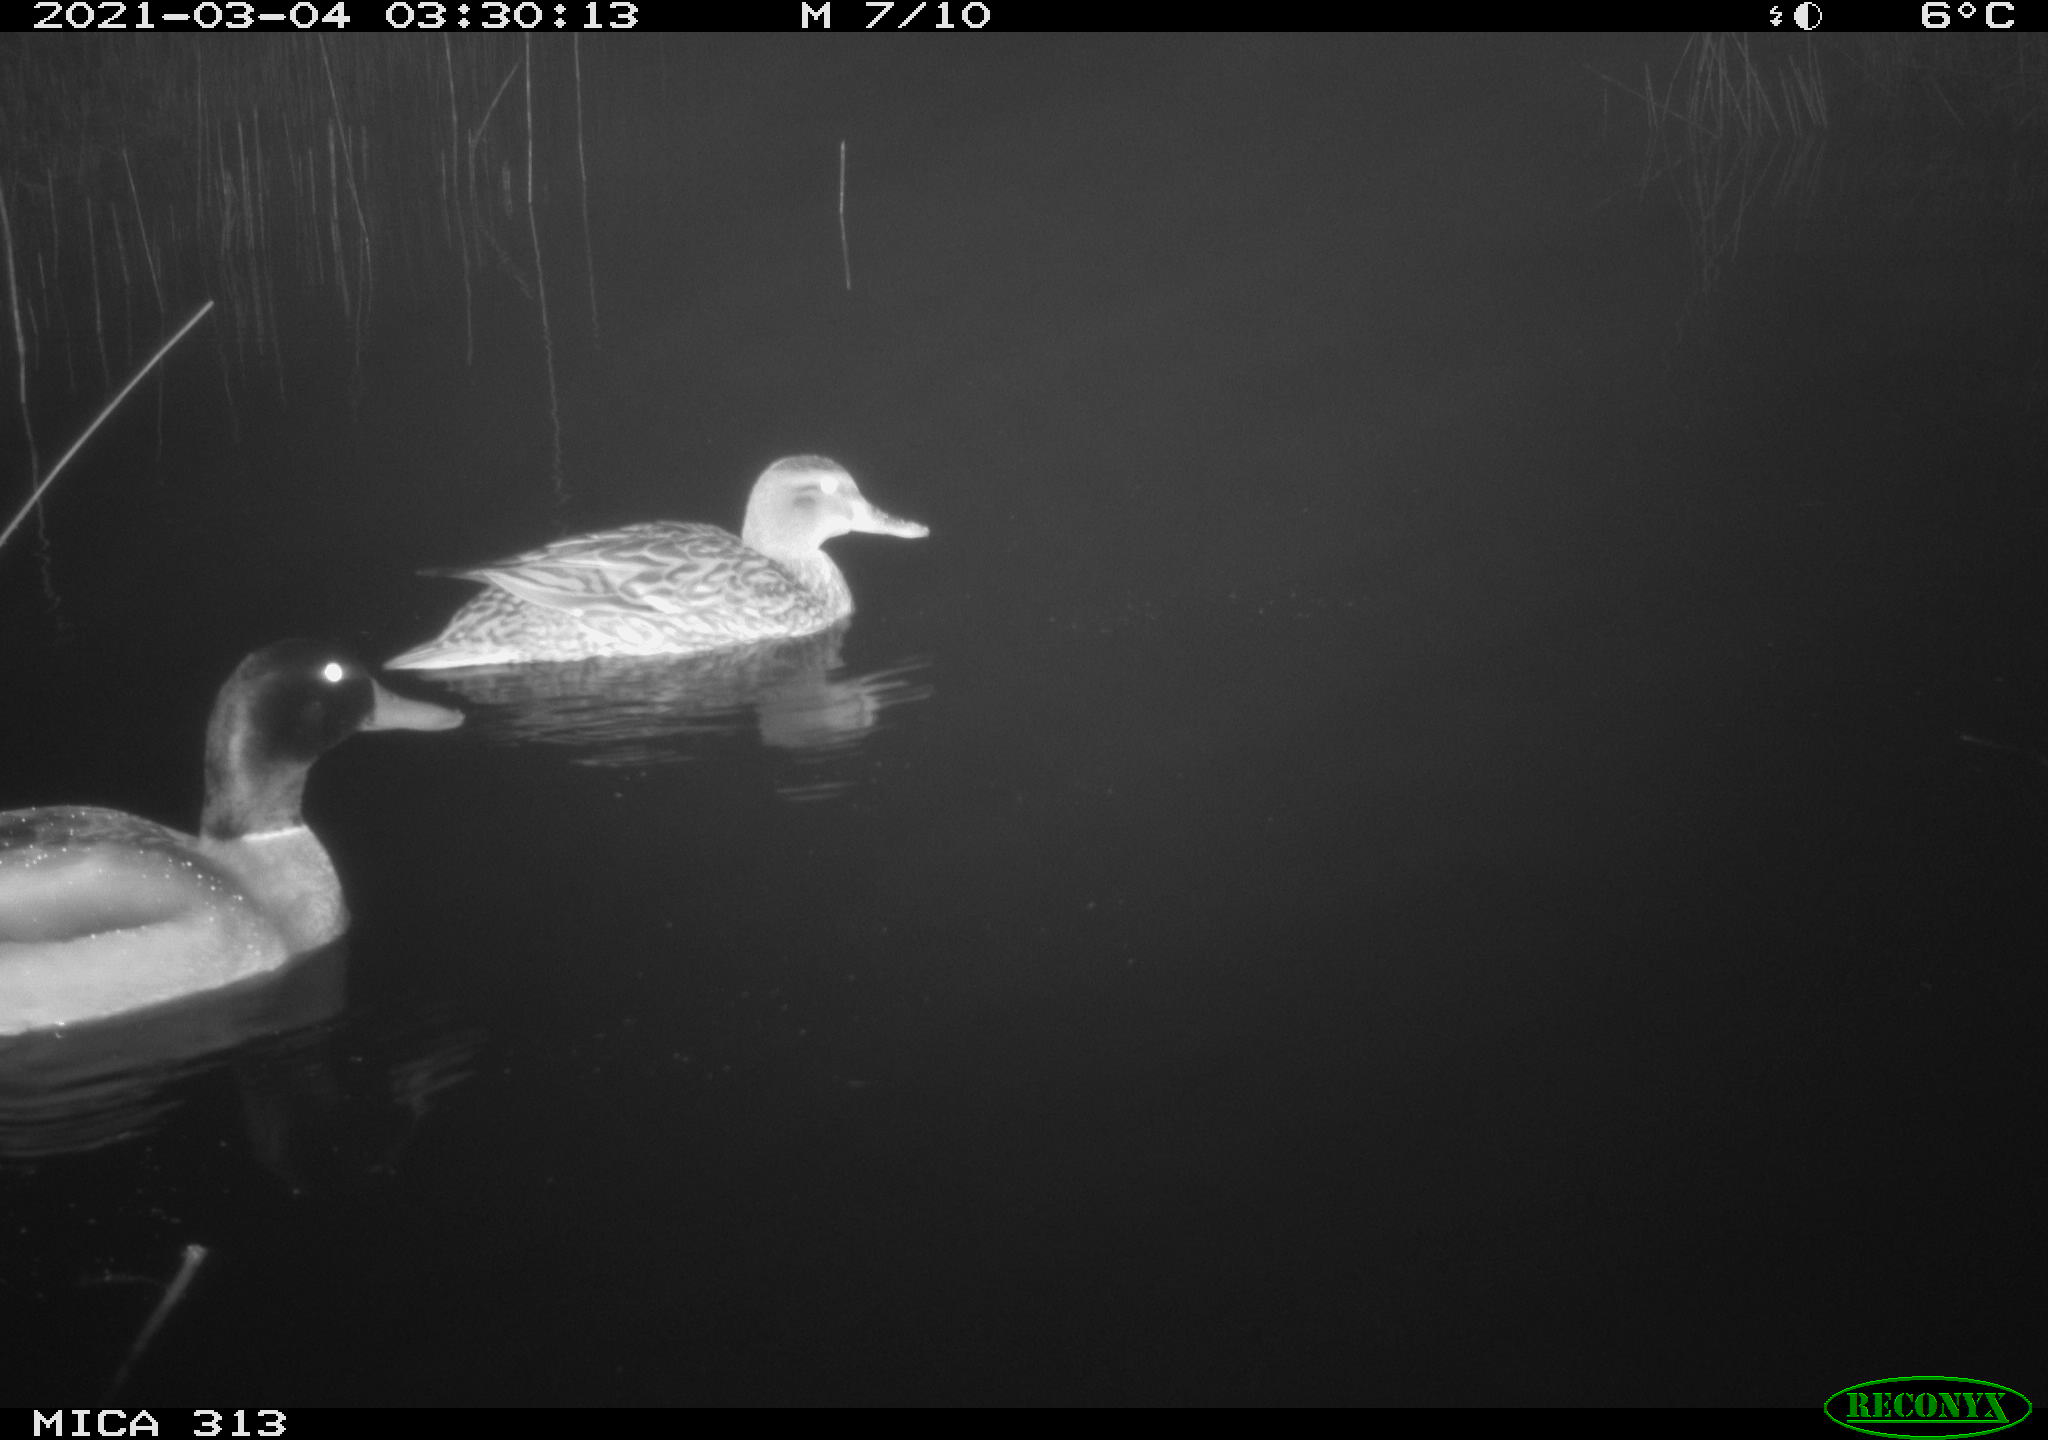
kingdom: Animalia
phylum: Chordata
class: Aves
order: Anseriformes
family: Anatidae
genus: Anas
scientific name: Anas platyrhynchos
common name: Mallard
